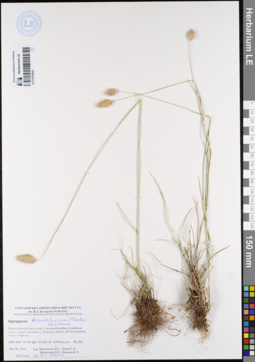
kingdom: Plantae
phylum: Tracheophyta
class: Liliopsida
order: Poales
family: Poaceae
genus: Agropyron
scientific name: Agropyron cristatum
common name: Crested wheatgrass
